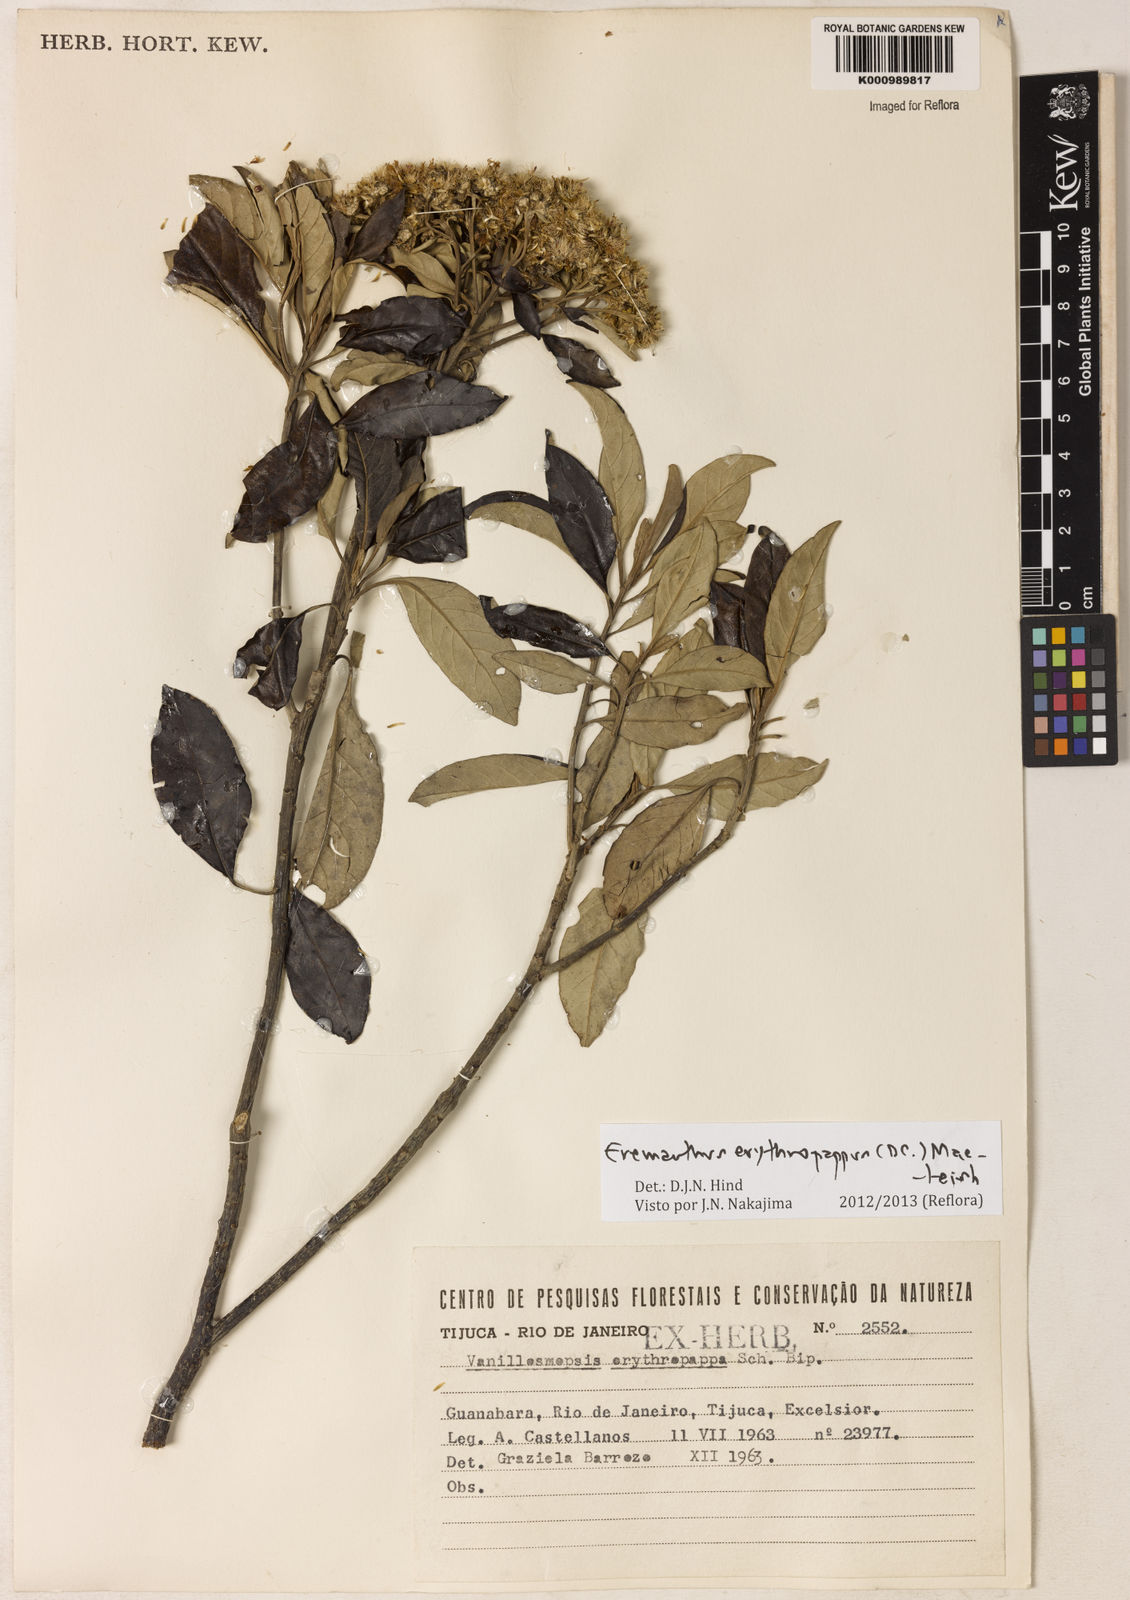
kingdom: Plantae
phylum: Tracheophyta
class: Magnoliopsida
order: Asterales
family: Asteraceae
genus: Eremanthus
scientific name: Eremanthus erythropappus
